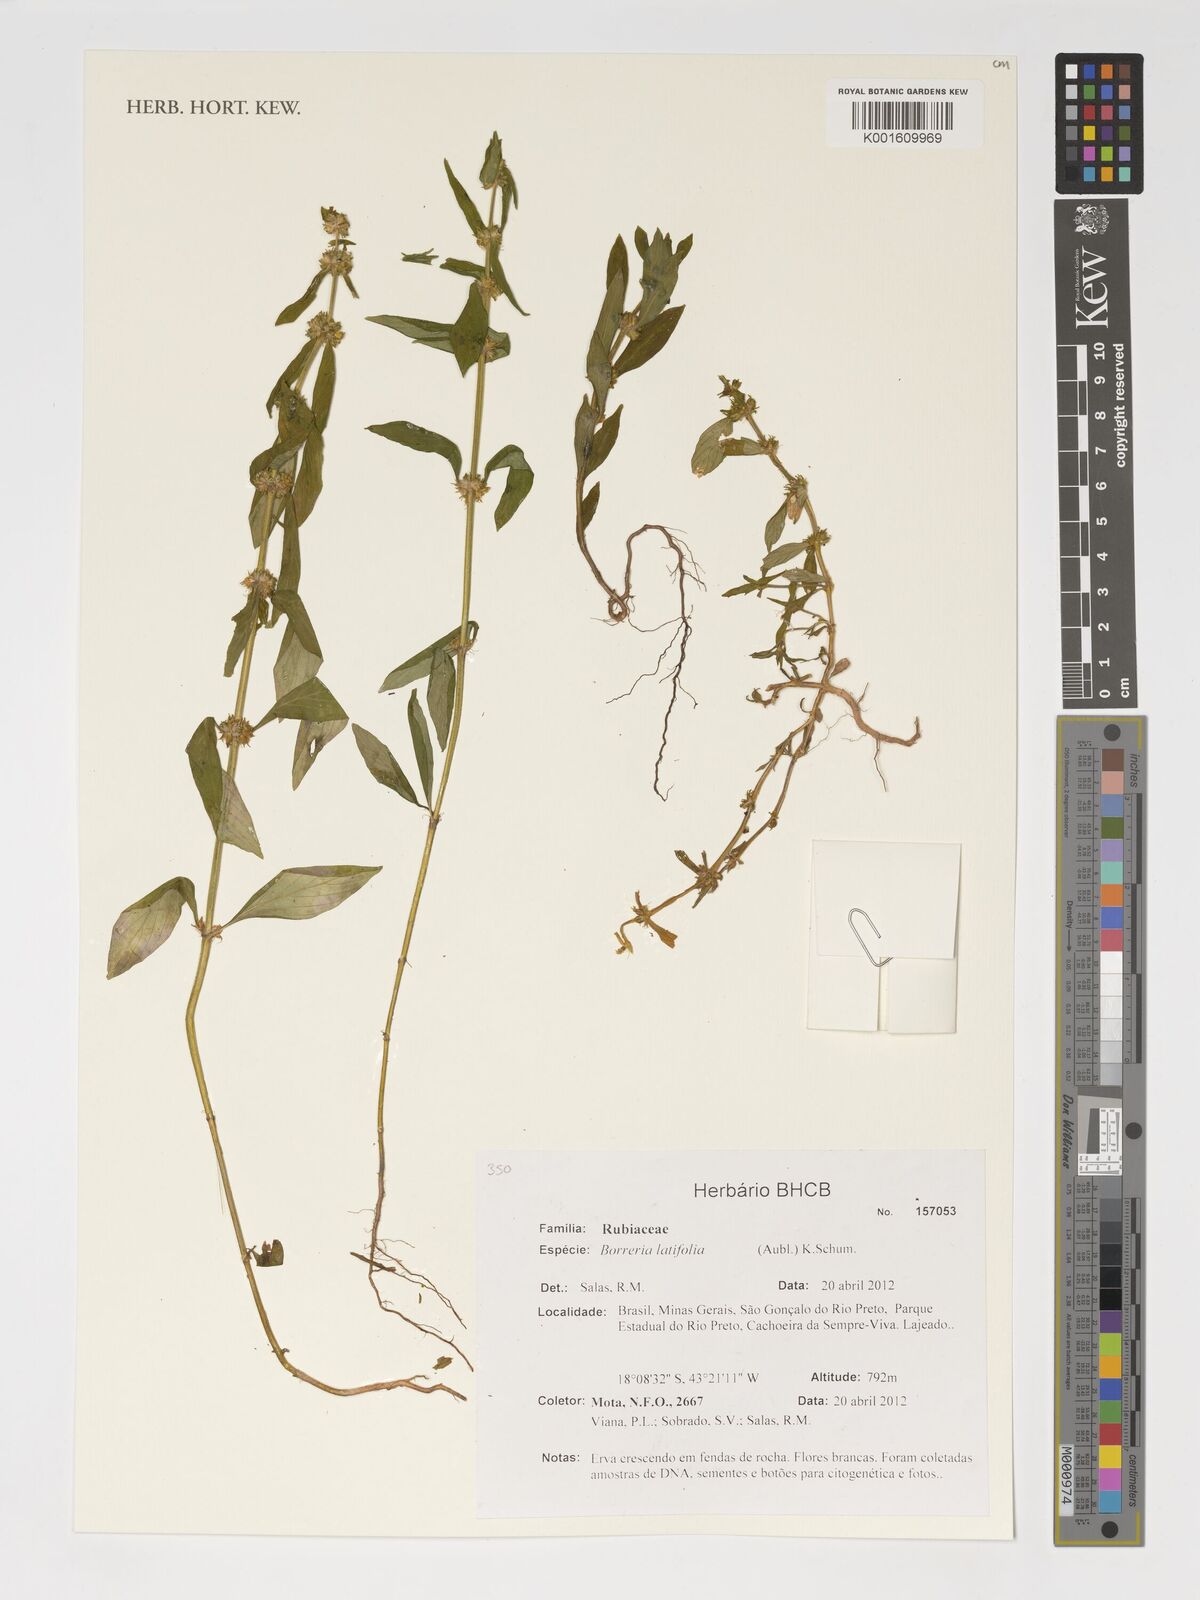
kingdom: Plantae
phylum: Tracheophyta
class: Magnoliopsida
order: Gentianales
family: Rubiaceae
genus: Spermacoce
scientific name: Spermacoce latifolia
